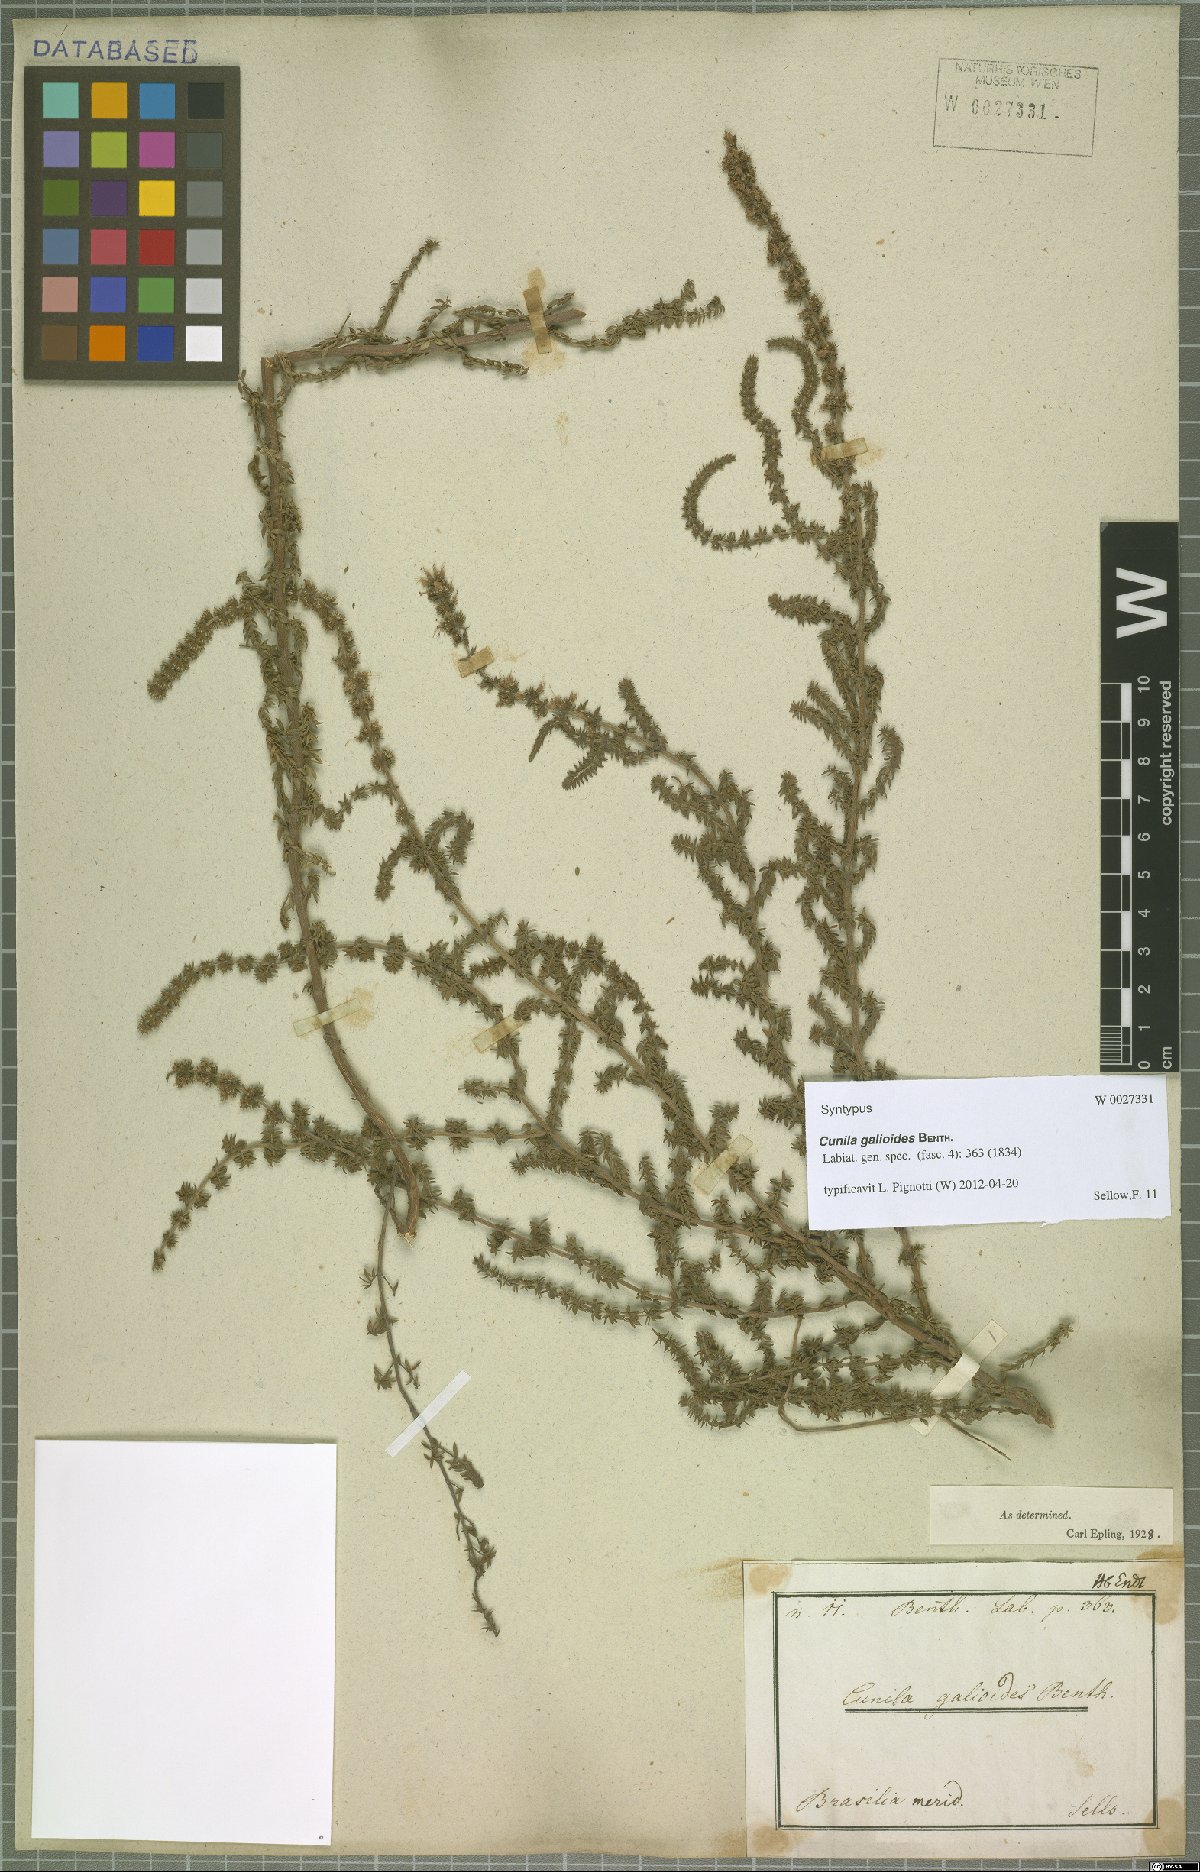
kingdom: Plantae
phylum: Tracheophyta
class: Magnoliopsida
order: Lamiales
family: Lamiaceae
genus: Cunila
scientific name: Cunila galioides
